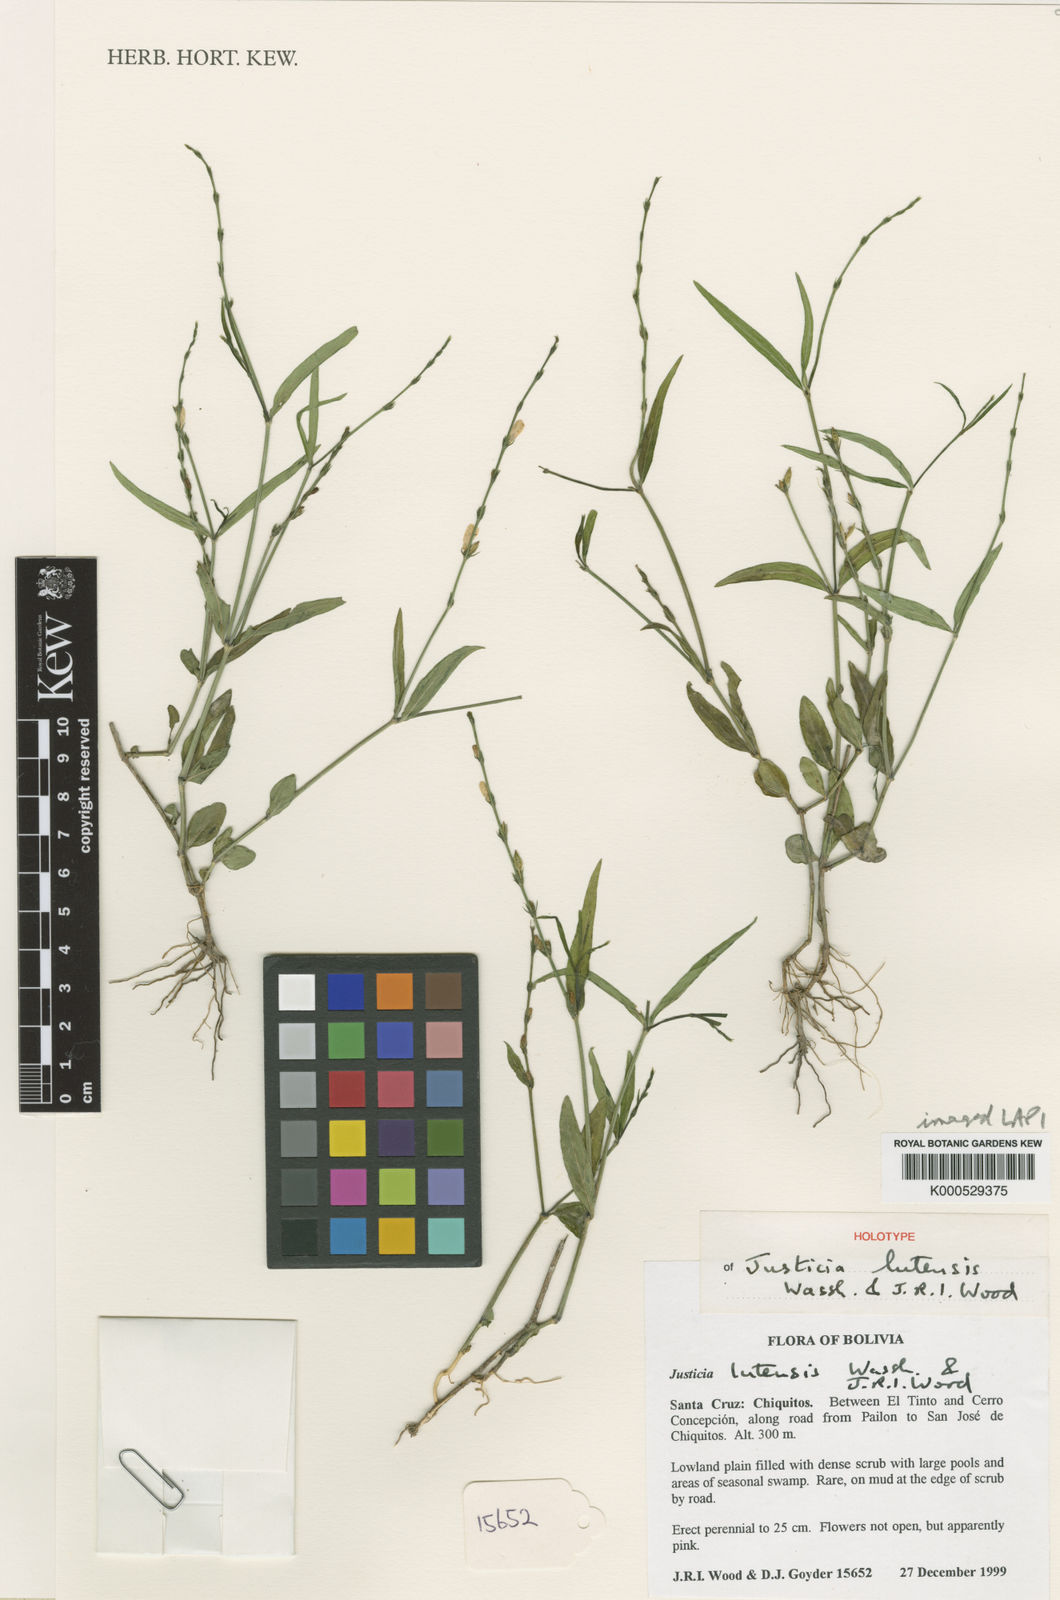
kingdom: Plantae
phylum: Tracheophyta
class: Magnoliopsida
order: Lamiales
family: Acanthaceae
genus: Dianthera
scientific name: Dianthera polygaloides
